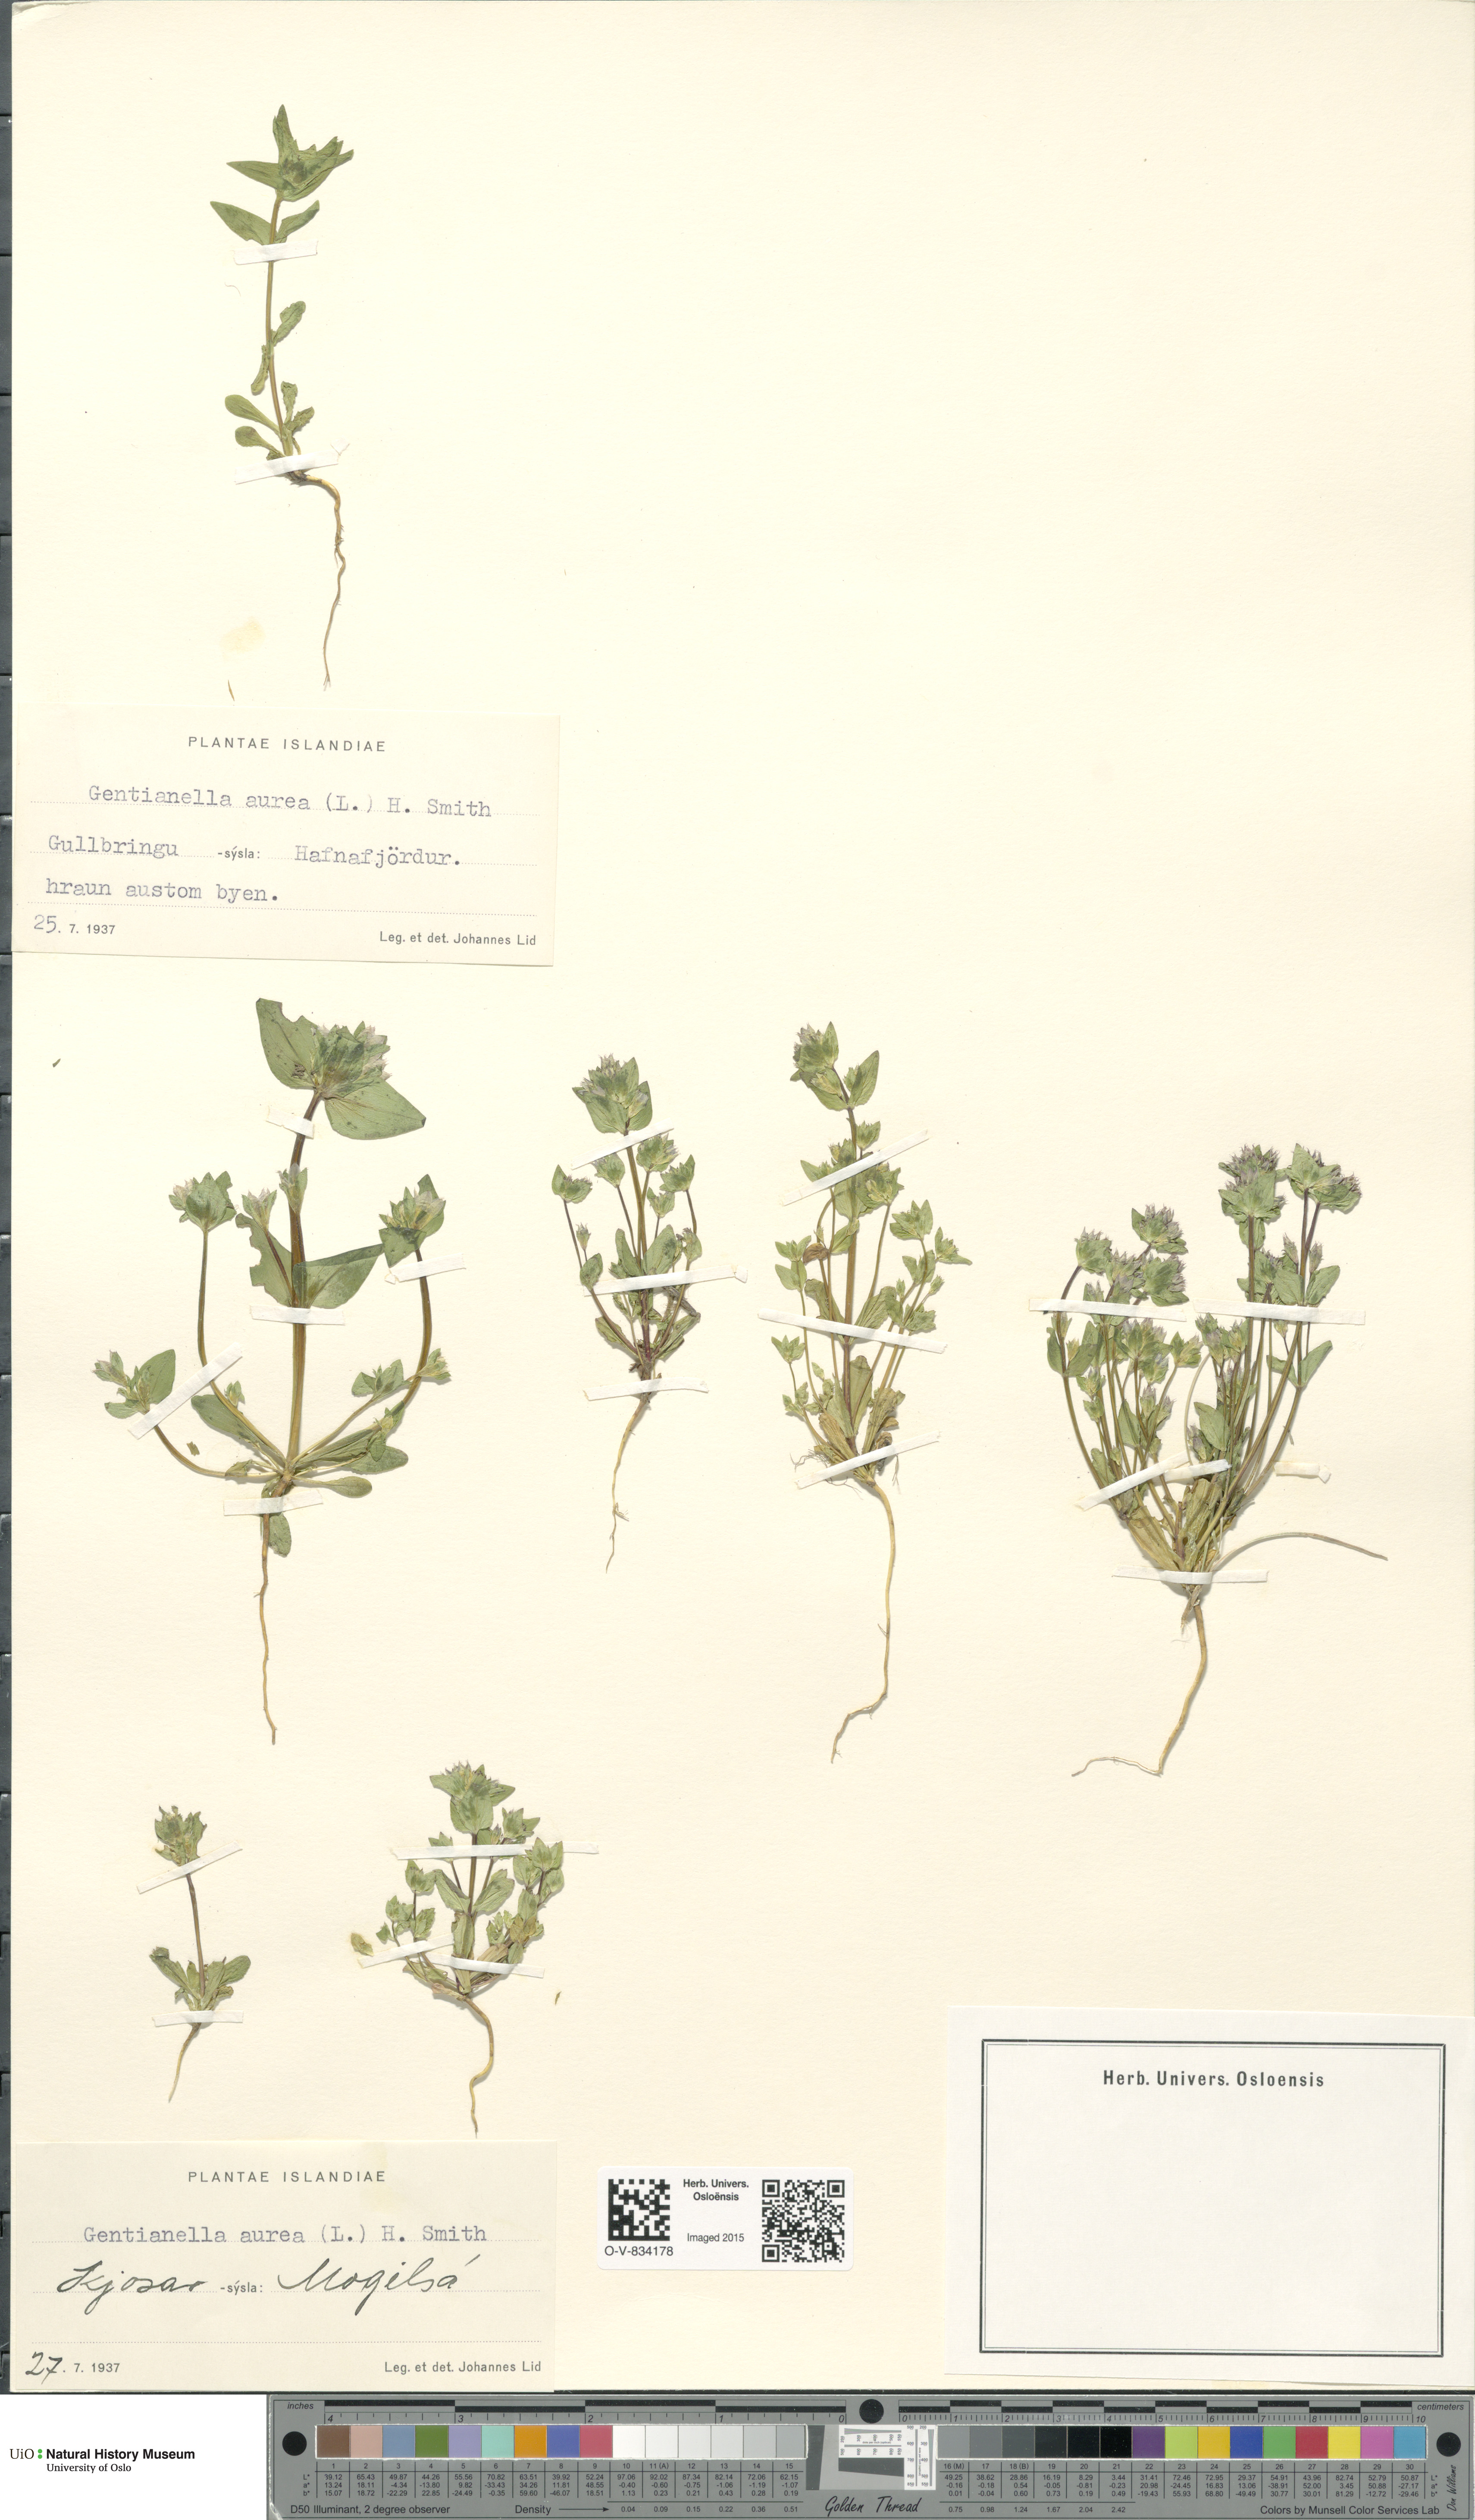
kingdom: Plantae
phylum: Tracheophyta
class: Magnoliopsida
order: Gentianales
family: Gentianaceae
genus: Gentianella
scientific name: Gentianella aurea
